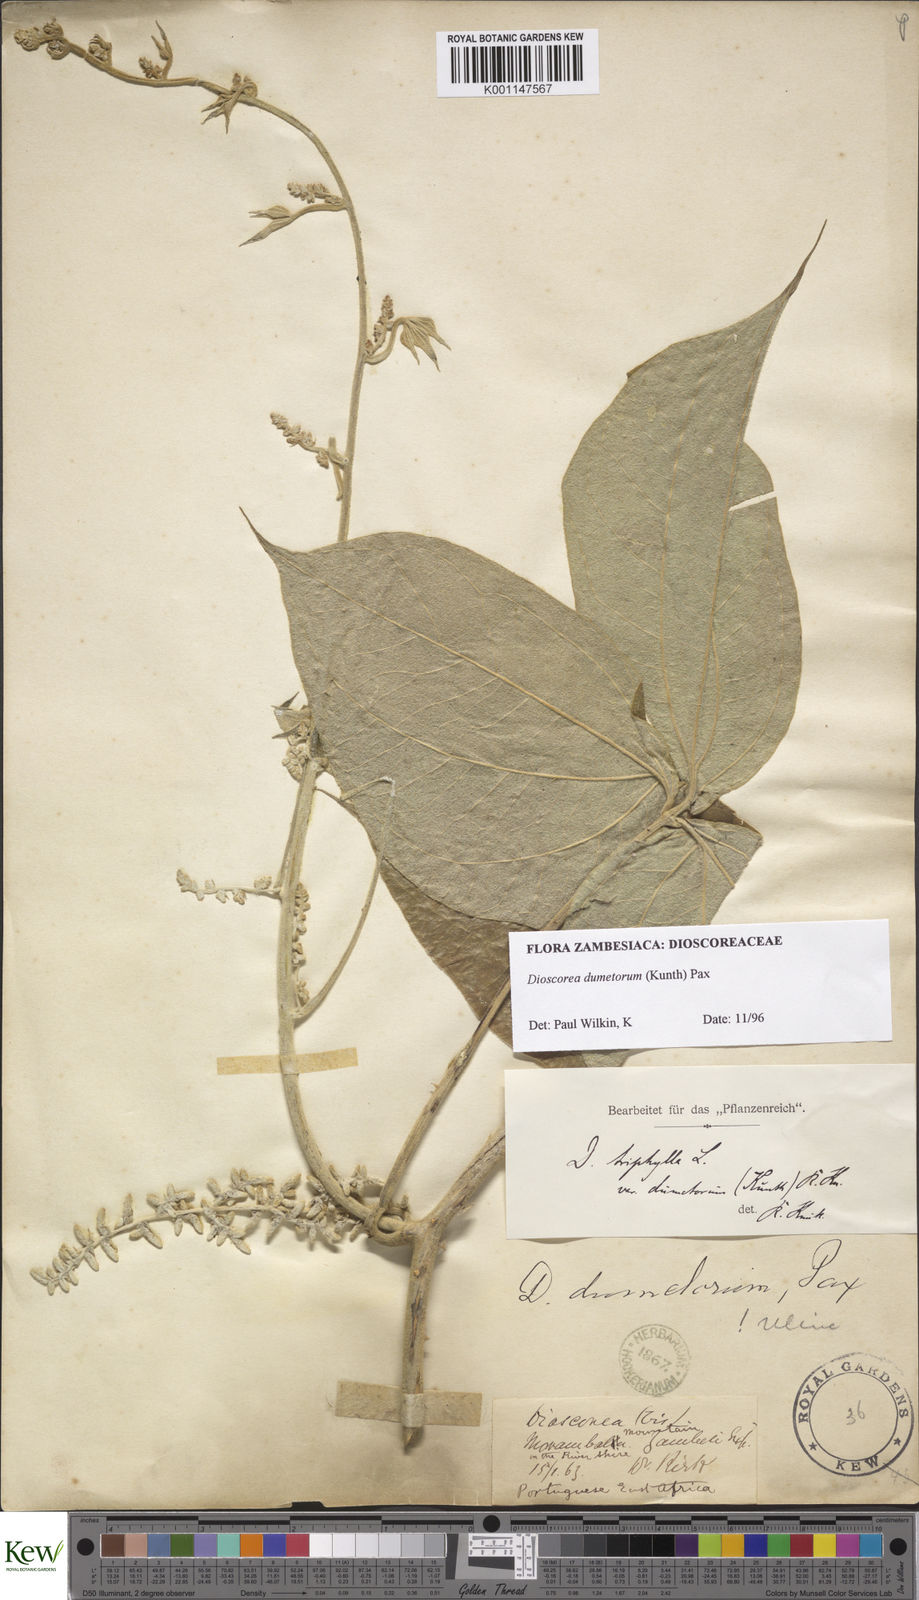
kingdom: Plantae
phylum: Tracheophyta
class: Liliopsida
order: Dioscoreales
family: Dioscoreaceae
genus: Dioscorea
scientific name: Dioscorea dumetorum
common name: African bitter yam
